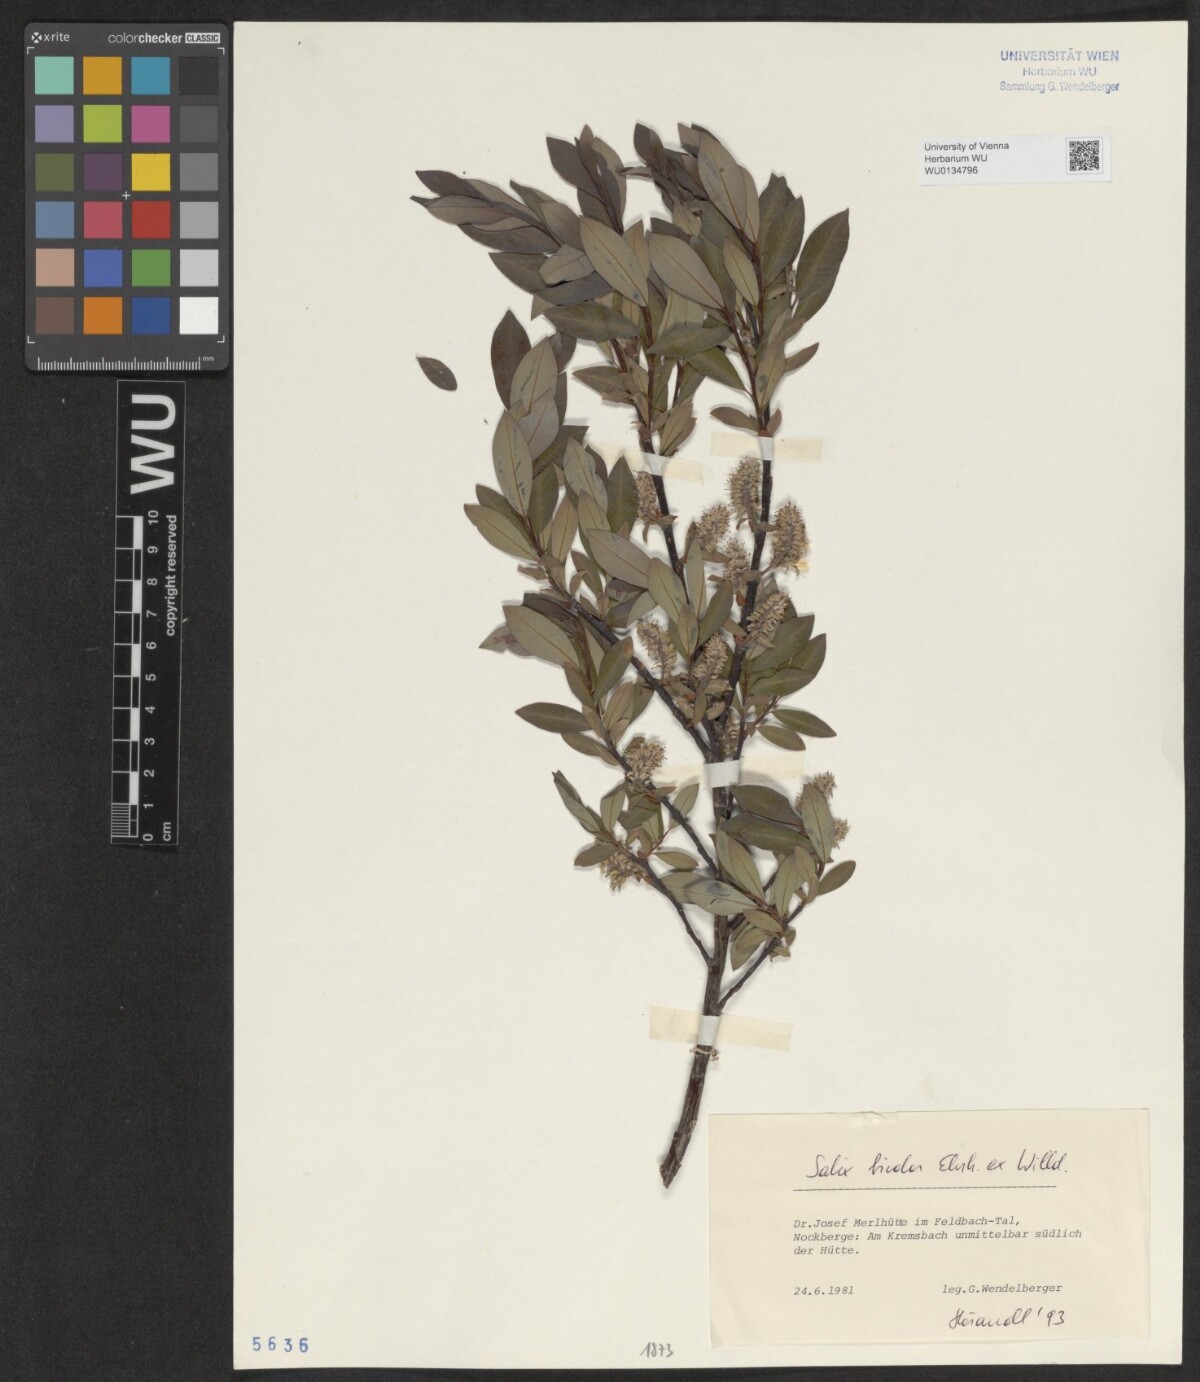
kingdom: Plantae
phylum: Tracheophyta
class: Magnoliopsida
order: Malpighiales
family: Salicaceae
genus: Salix
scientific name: Salix bicolor
